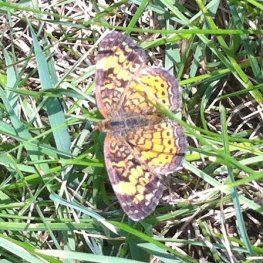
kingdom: Animalia
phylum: Arthropoda
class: Insecta
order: Lepidoptera
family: Nymphalidae
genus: Phyciodes
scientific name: Phyciodes tharos
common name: Pearl Crescent
